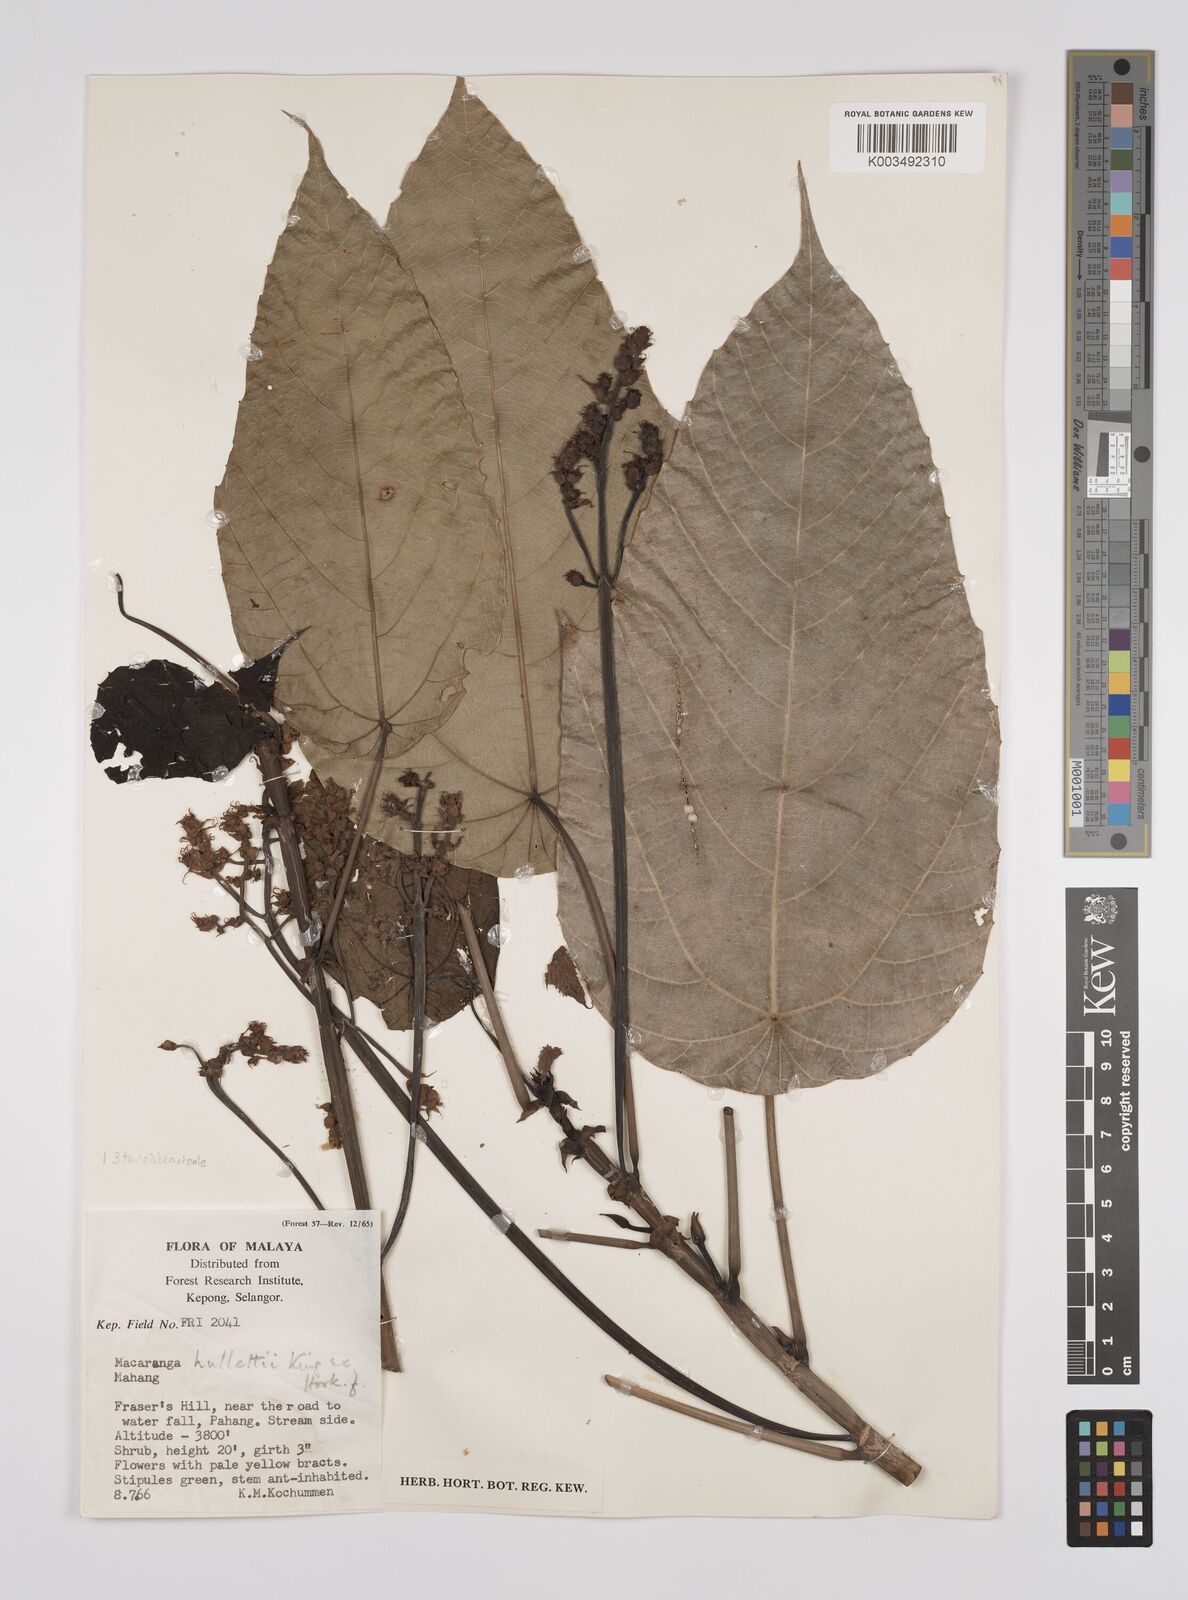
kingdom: Plantae
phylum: Tracheophyta
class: Magnoliopsida
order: Malpighiales
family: Euphorbiaceae
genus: Macaranga
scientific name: Macaranga hullettii
